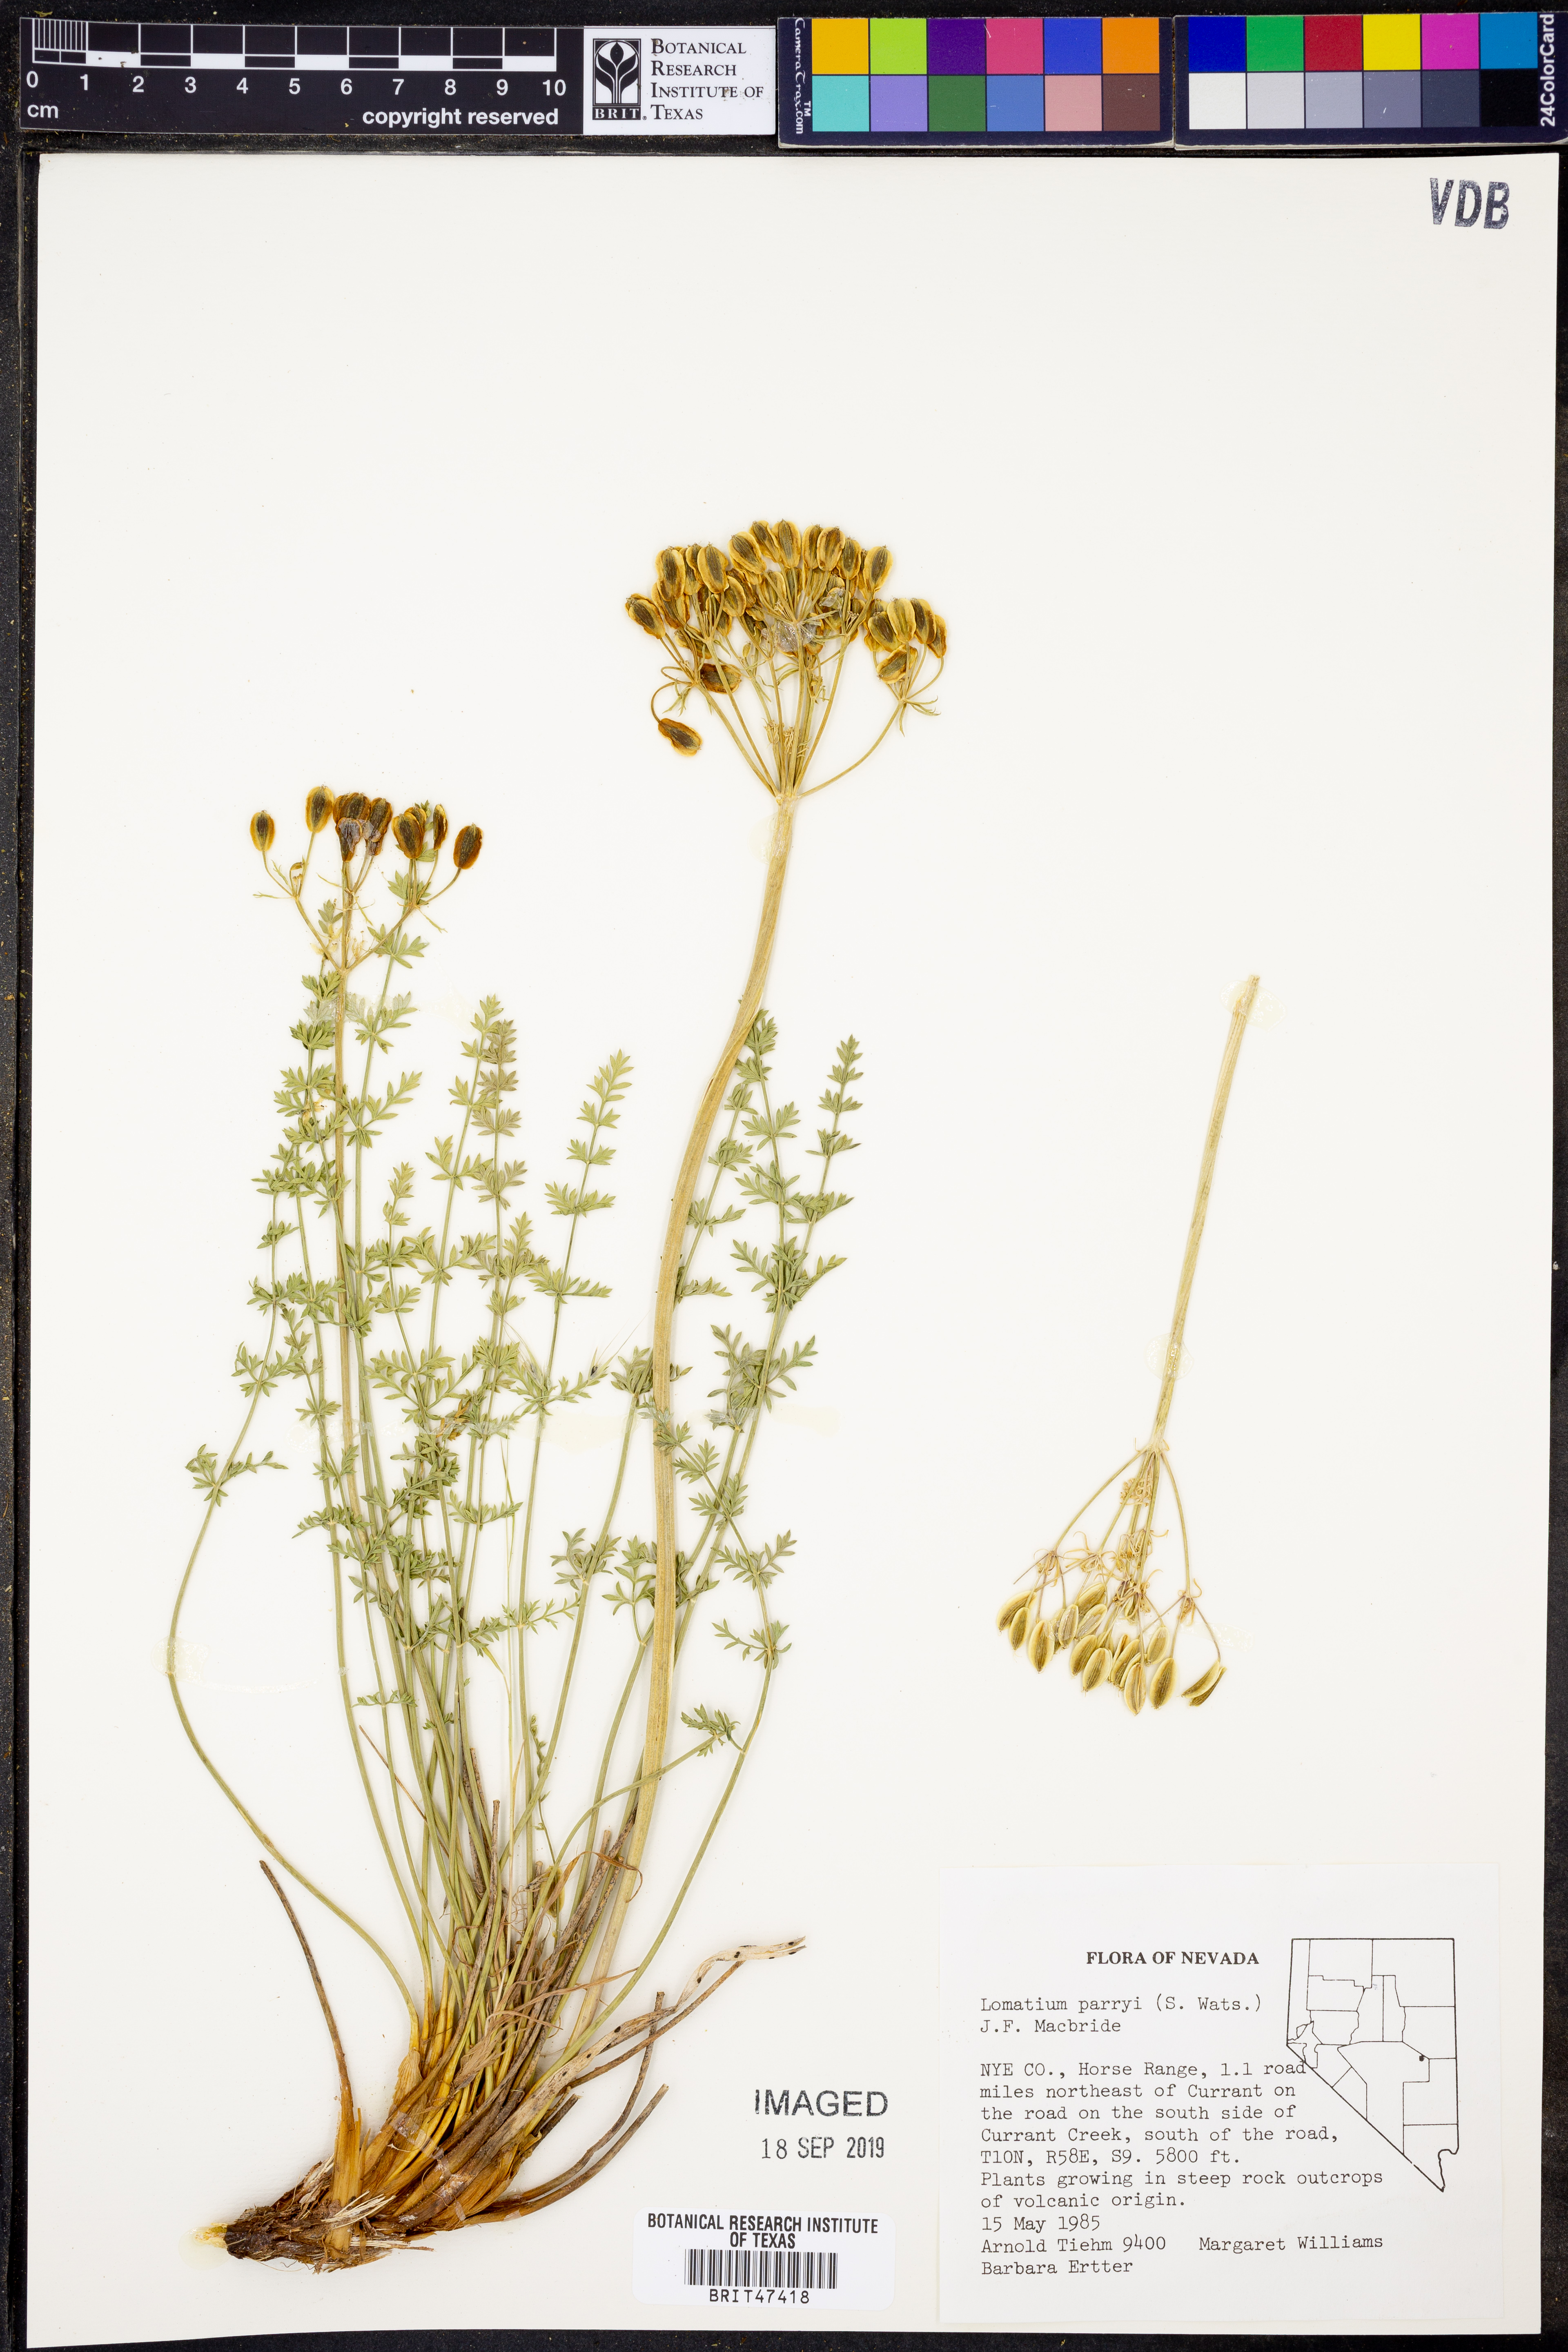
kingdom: Plantae
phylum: Tracheophyta
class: Magnoliopsida
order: Apiales
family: Apiaceae
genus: Lomatium
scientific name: Lomatium parryi
